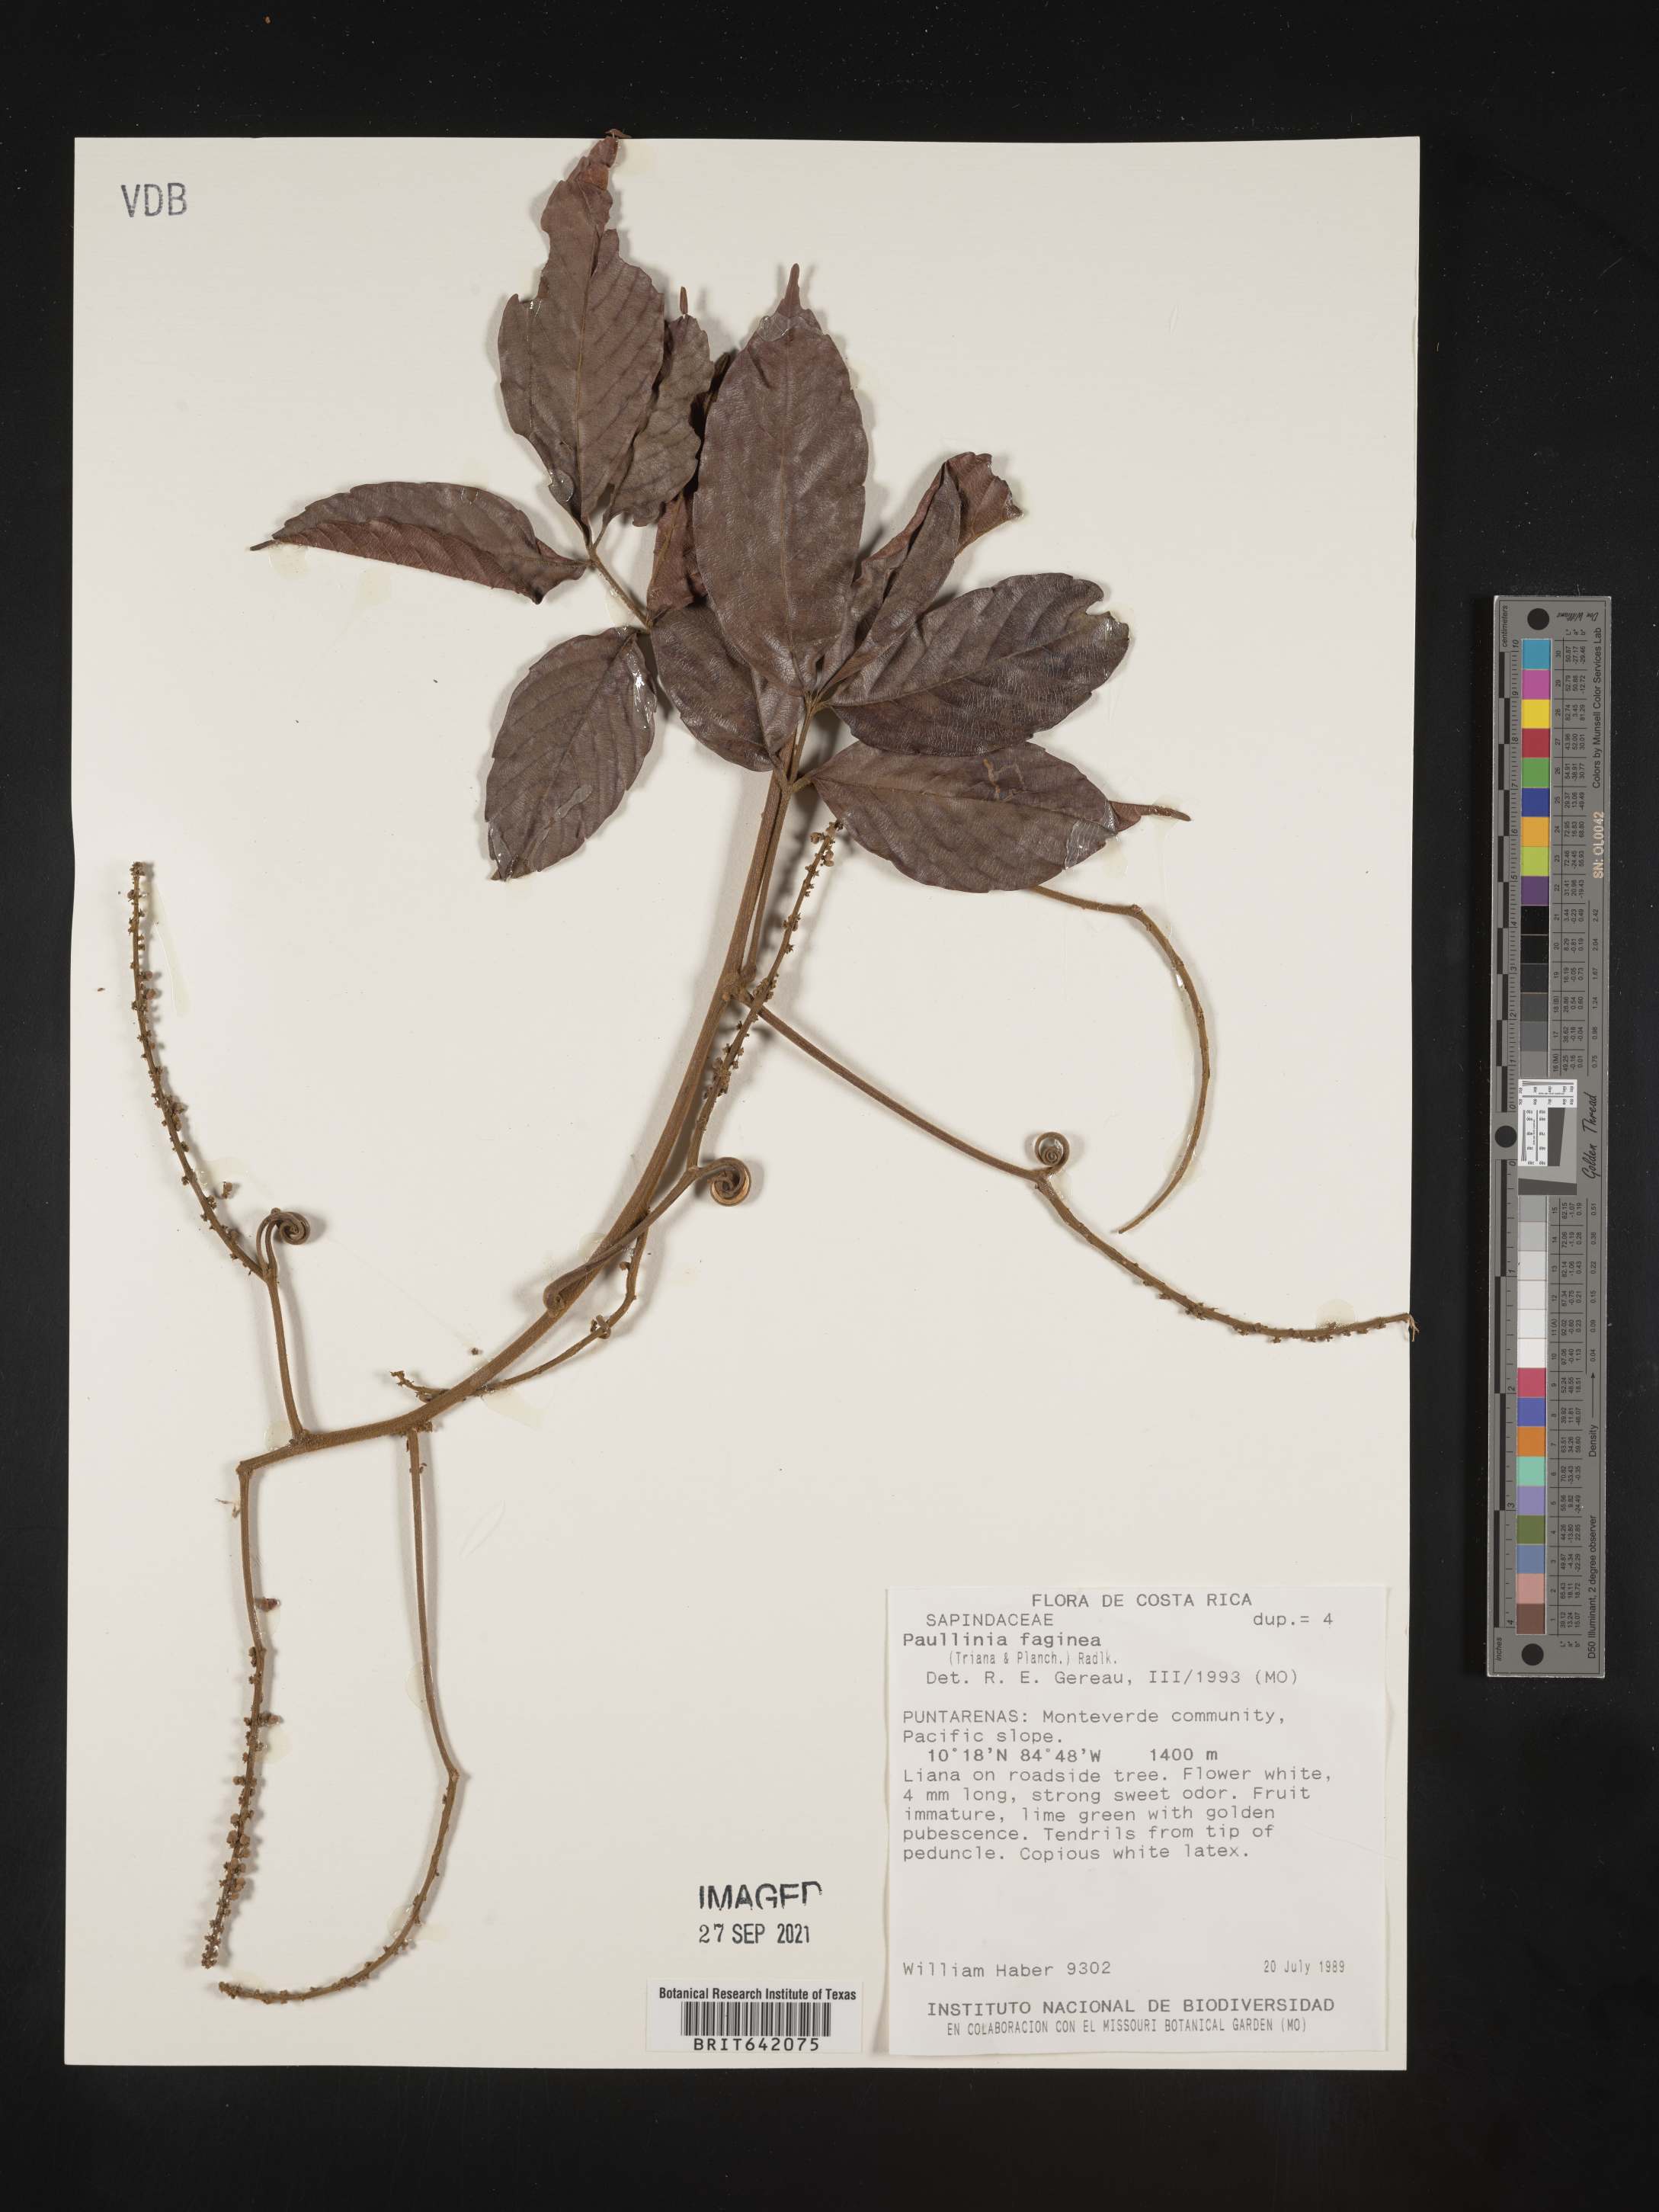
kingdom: Plantae
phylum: Tracheophyta
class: Magnoliopsida
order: Sapindales
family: Sapindaceae
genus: Paullinia
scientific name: Paullinia
